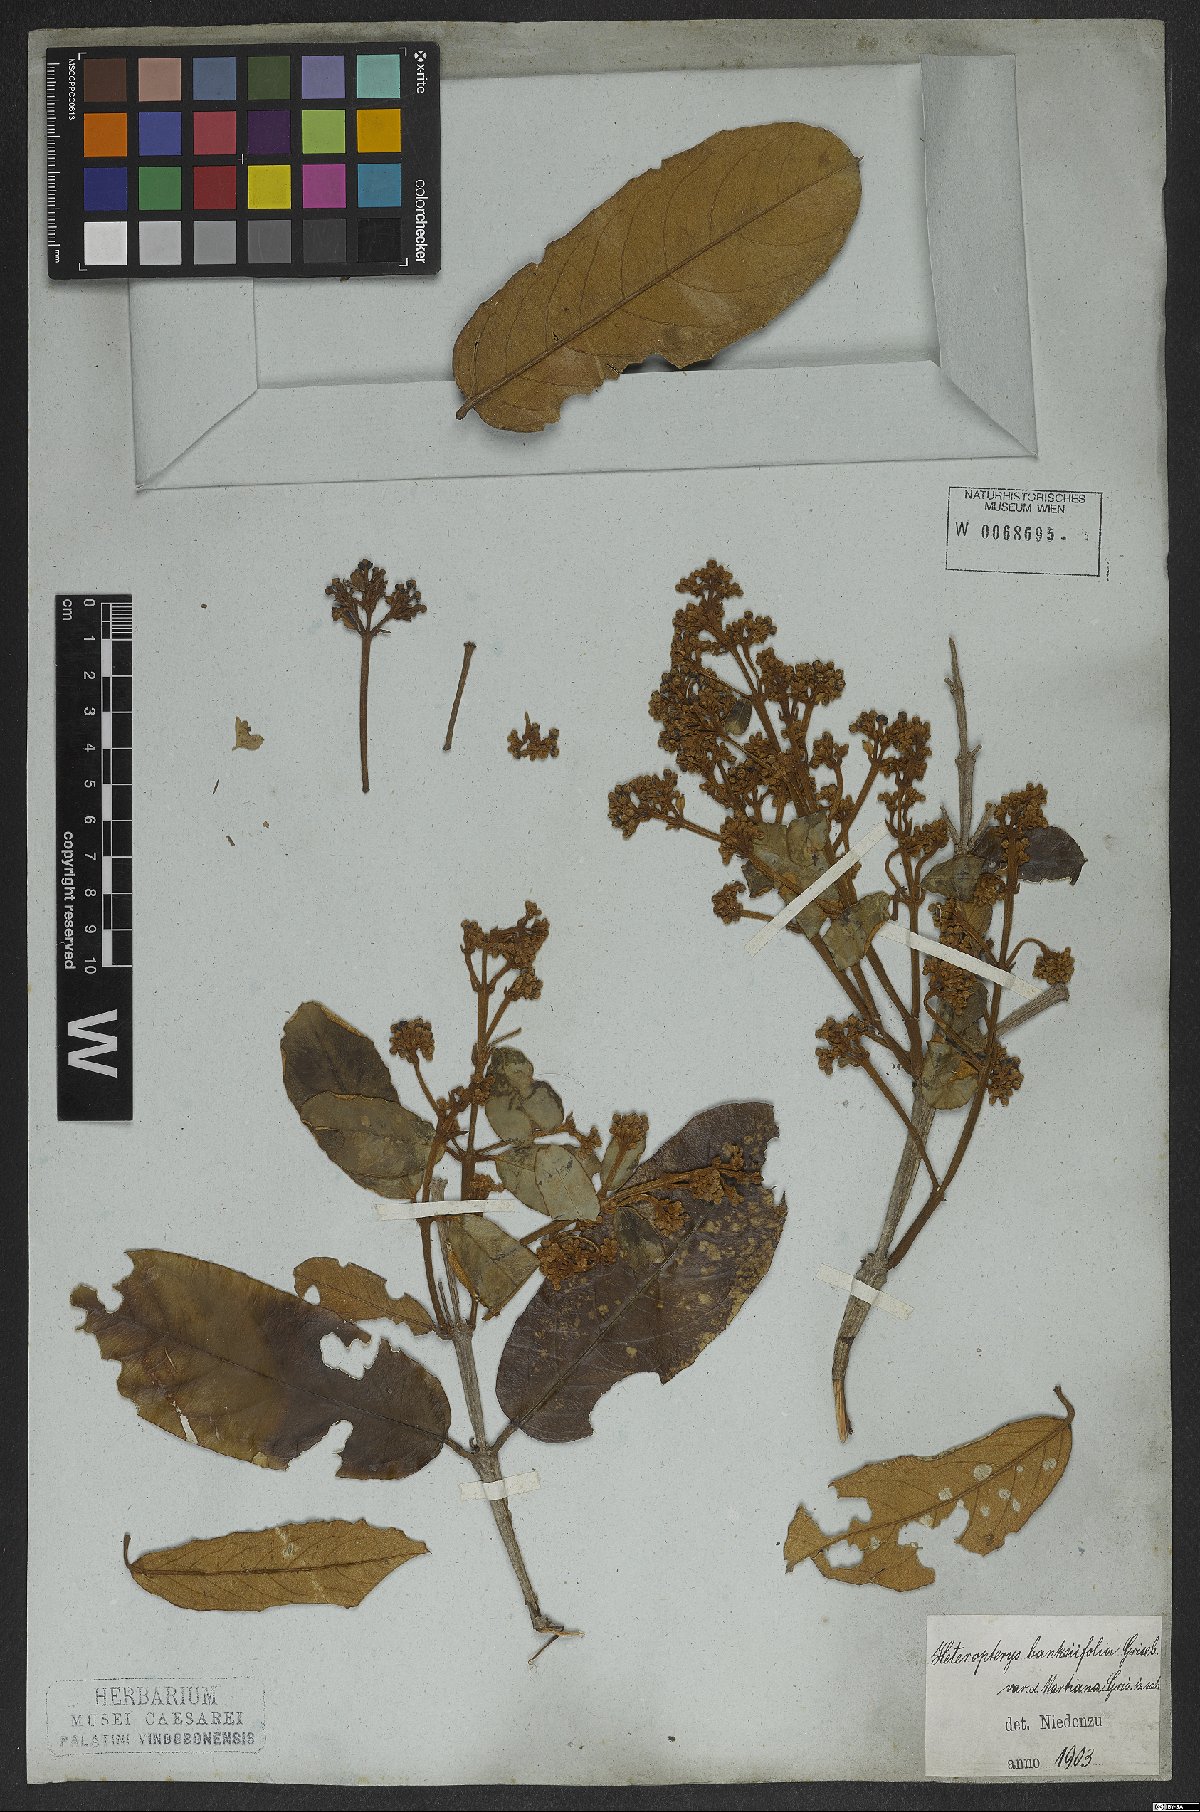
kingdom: Plantae
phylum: Tracheophyta
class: Magnoliopsida
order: Malpighiales
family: Malpighiaceae
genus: Heteropterys
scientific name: Heteropterys banksiifolia
